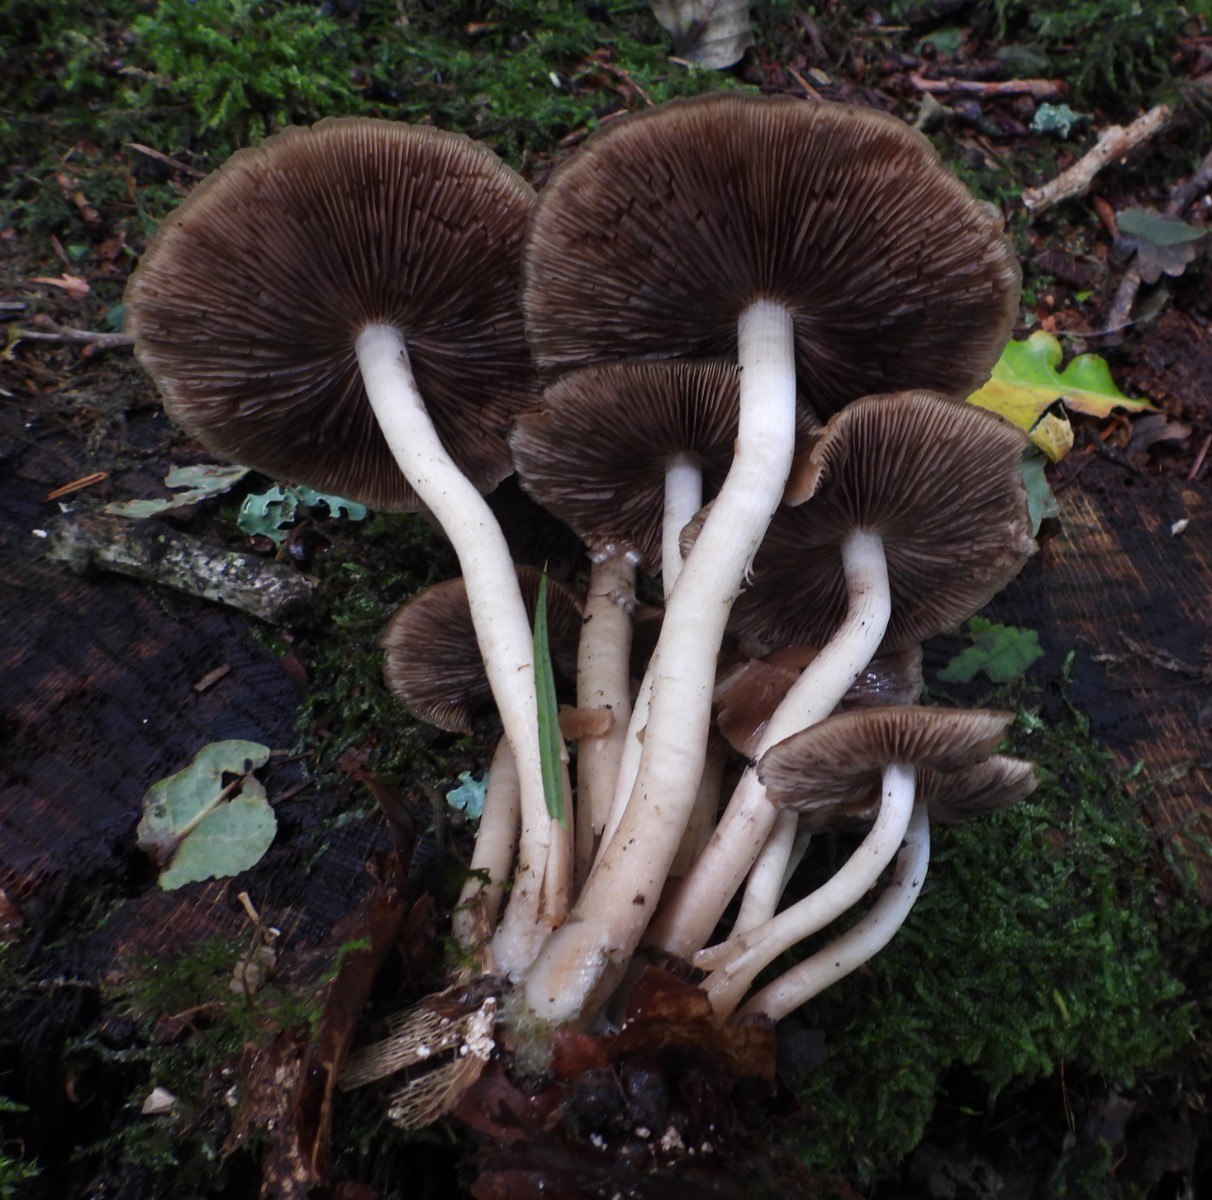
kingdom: Fungi
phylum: Basidiomycota
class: Agaricomycetes
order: Agaricales
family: Psathyrellaceae
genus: Psathyrella
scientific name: Psathyrella piluliformis
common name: lysstokket mørkhat
